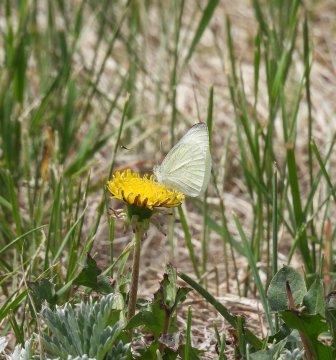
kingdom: Animalia
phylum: Arthropoda
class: Insecta
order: Lepidoptera
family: Pieridae
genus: Pieris
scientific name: Pieris rapae
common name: Cabbage White
